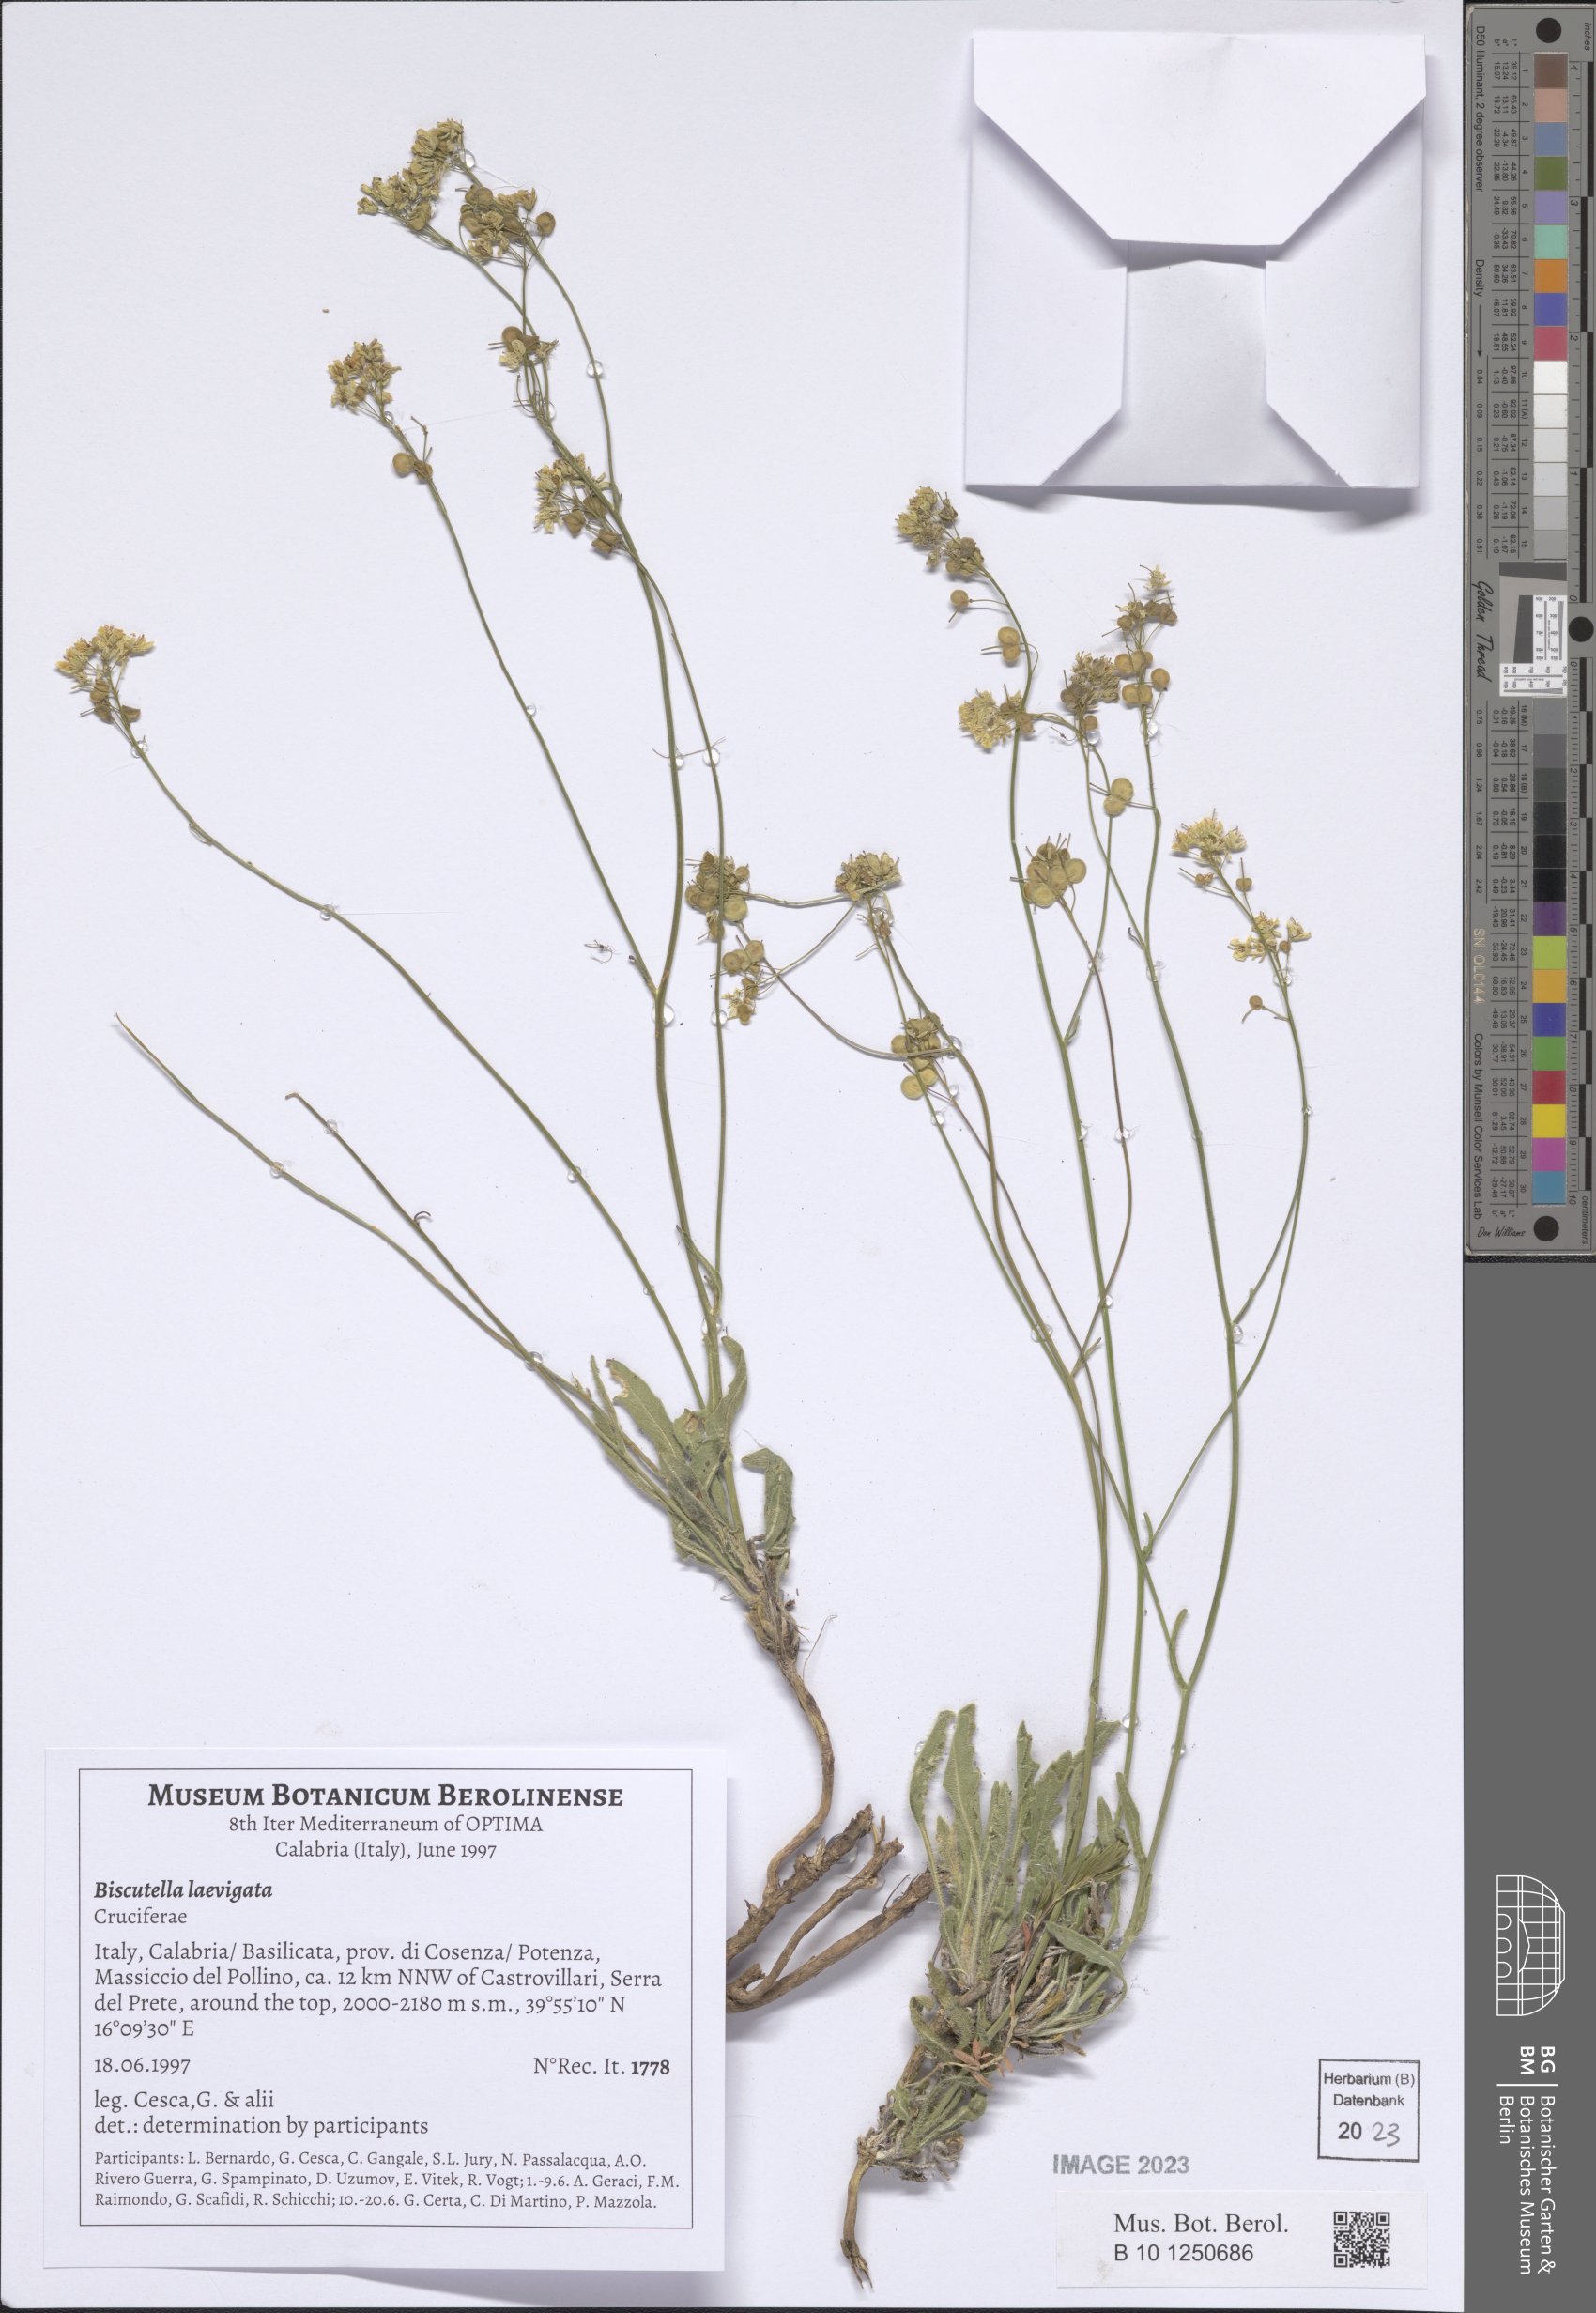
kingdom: Plantae
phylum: Tracheophyta
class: Magnoliopsida
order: Brassicales
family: Brassicaceae
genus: Biscutella
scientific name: Biscutella laevigata
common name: Buckler mustard
